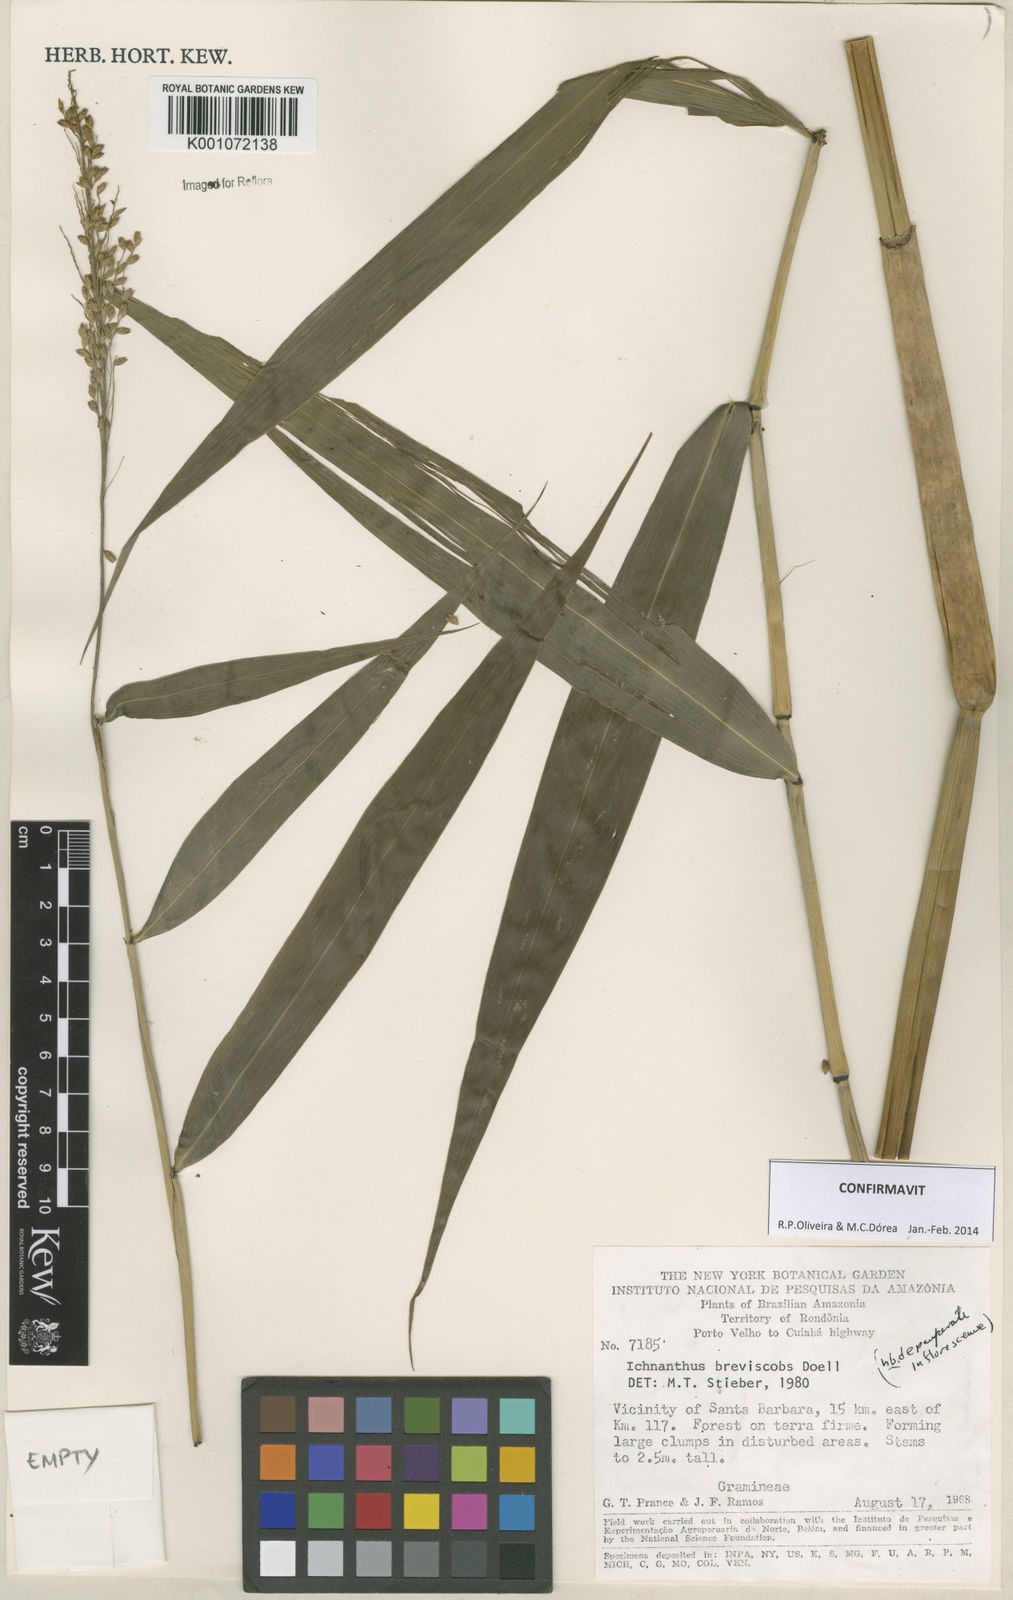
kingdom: Plantae
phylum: Tracheophyta
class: Liliopsida
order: Poales
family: Poaceae
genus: Ichnanthus
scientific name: Ichnanthus
